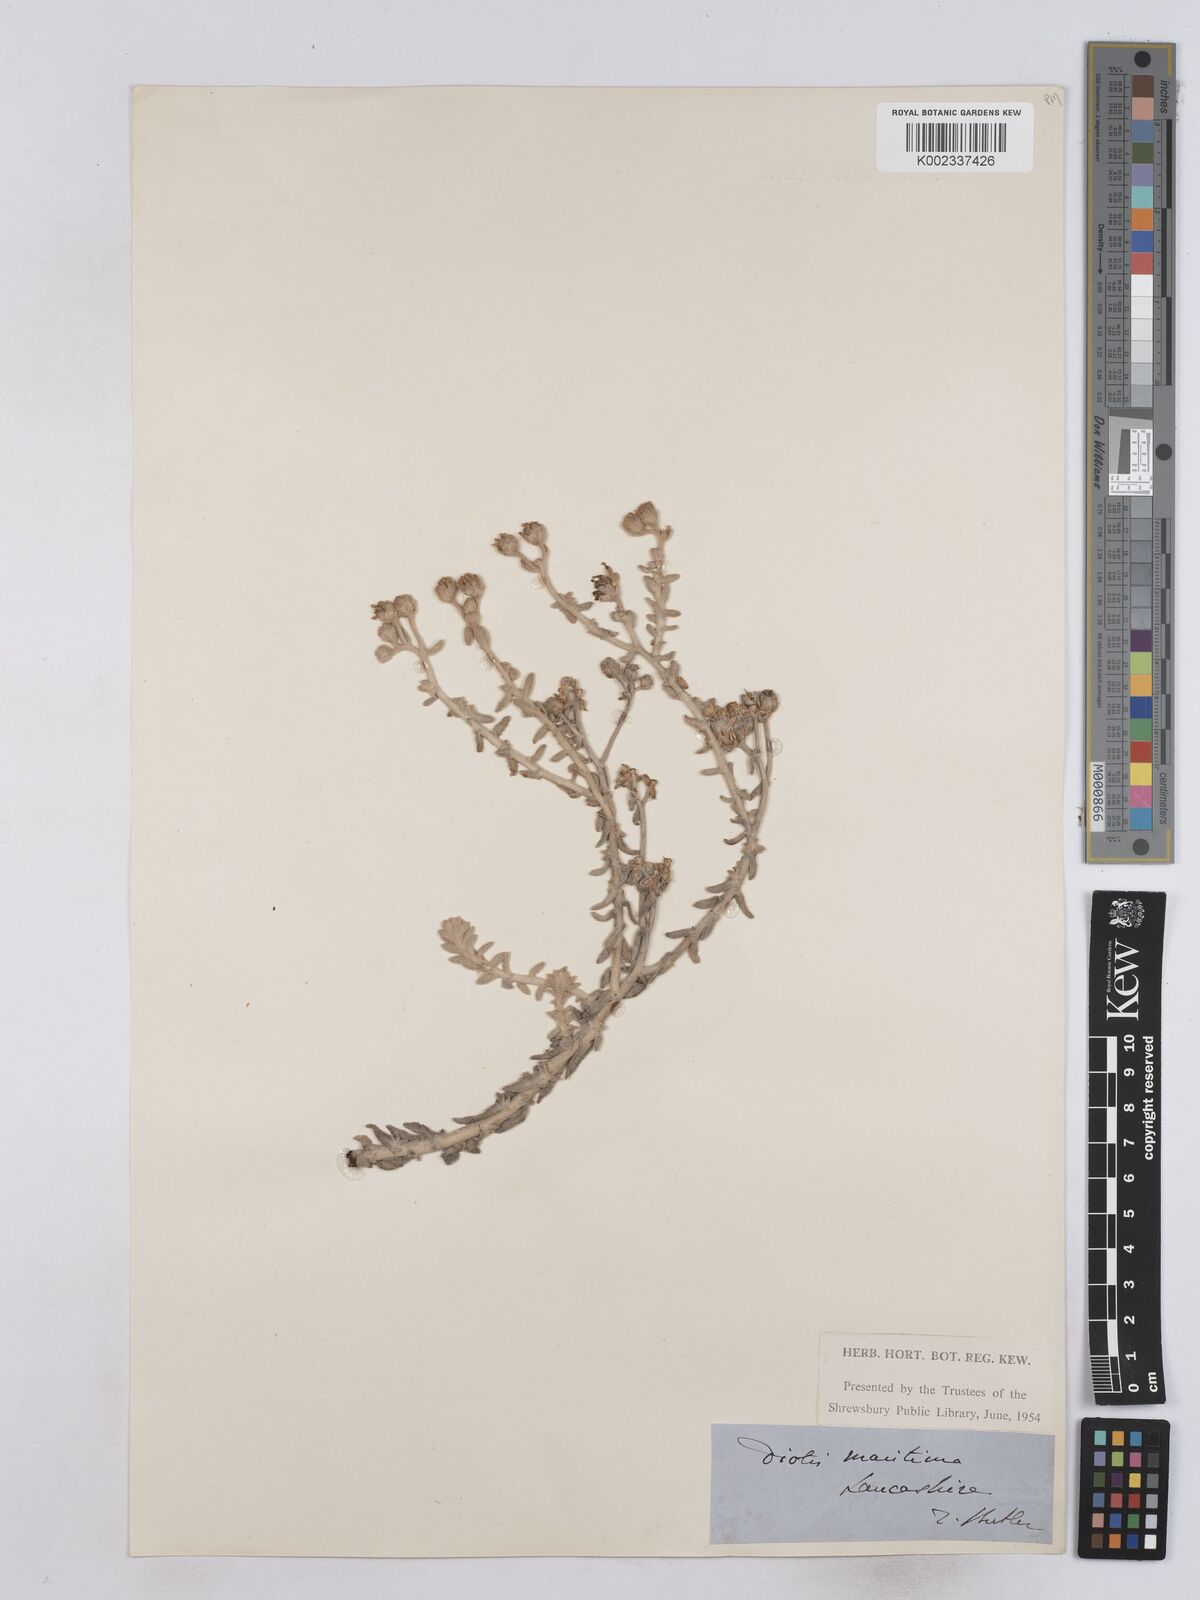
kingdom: Plantae
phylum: Tracheophyta
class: Magnoliopsida
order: Asterales
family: Asteraceae
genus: Achillea
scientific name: Achillea maritima
